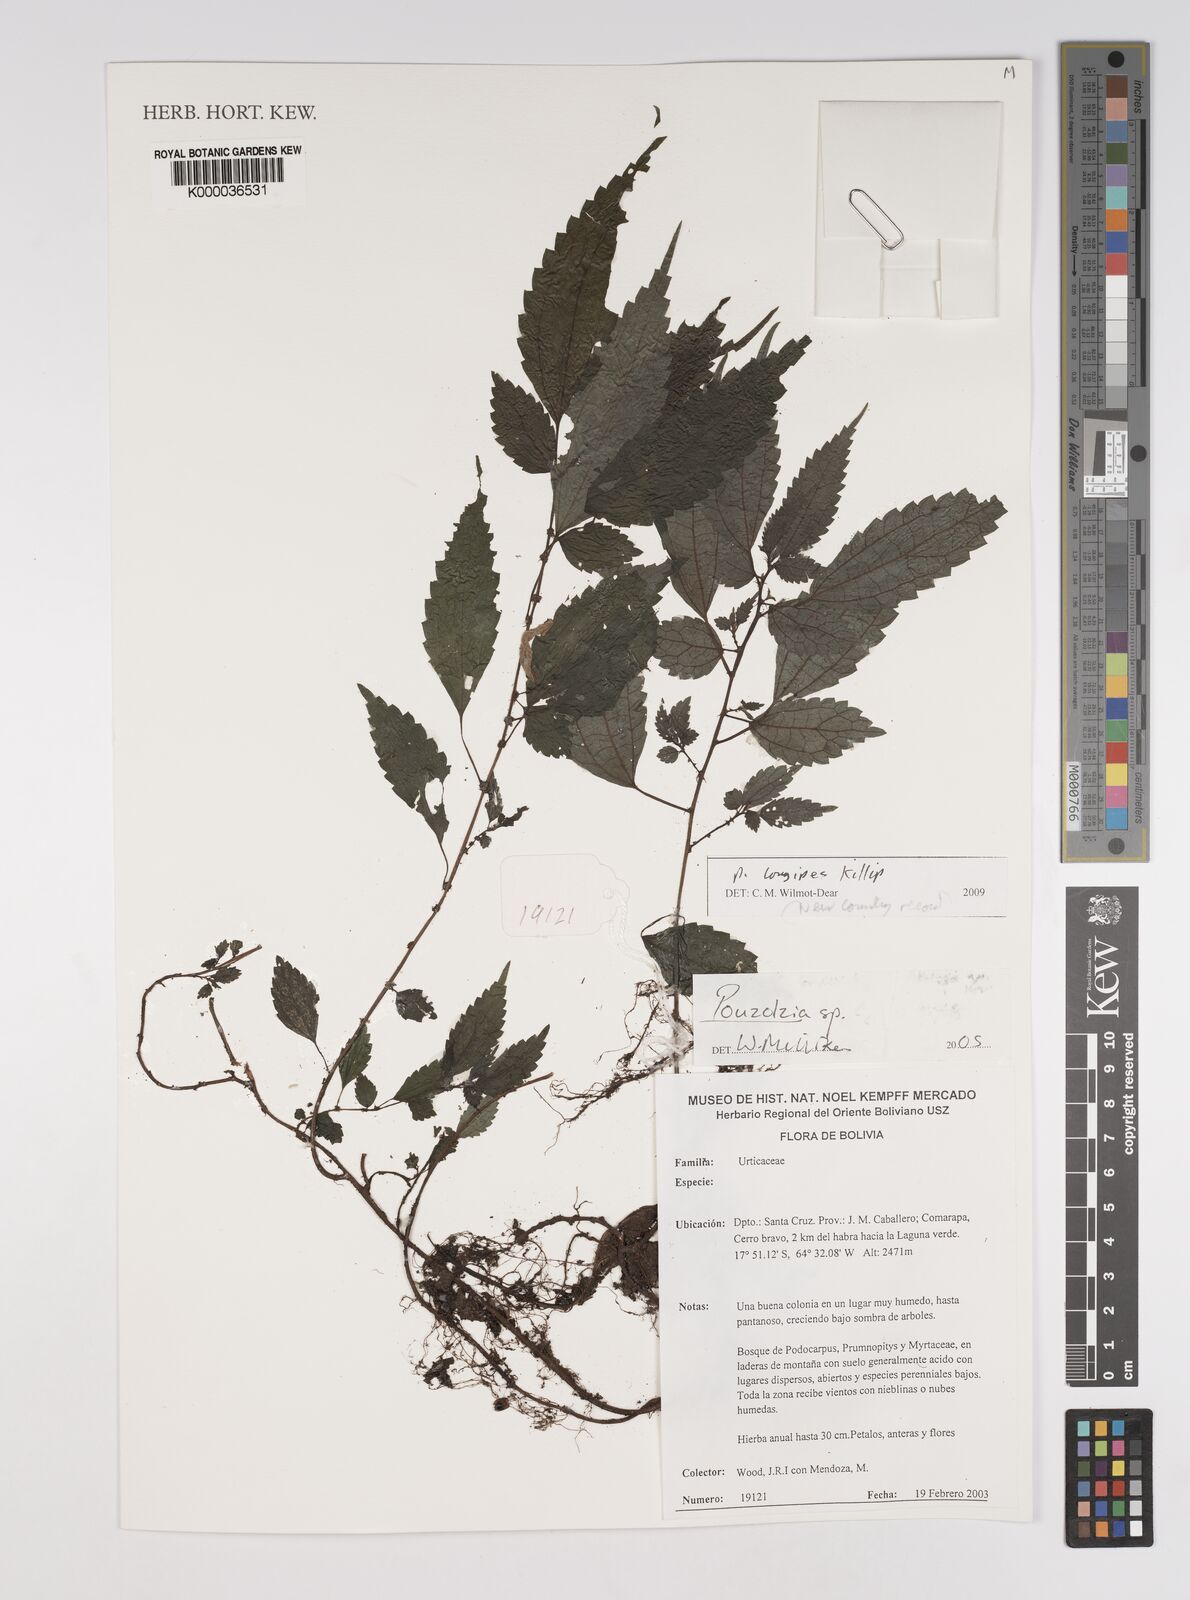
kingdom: Plantae
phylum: Tracheophyta
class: Magnoliopsida
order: Rosales
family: Urticaceae
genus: Pouzolzia
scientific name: Pouzolzia
